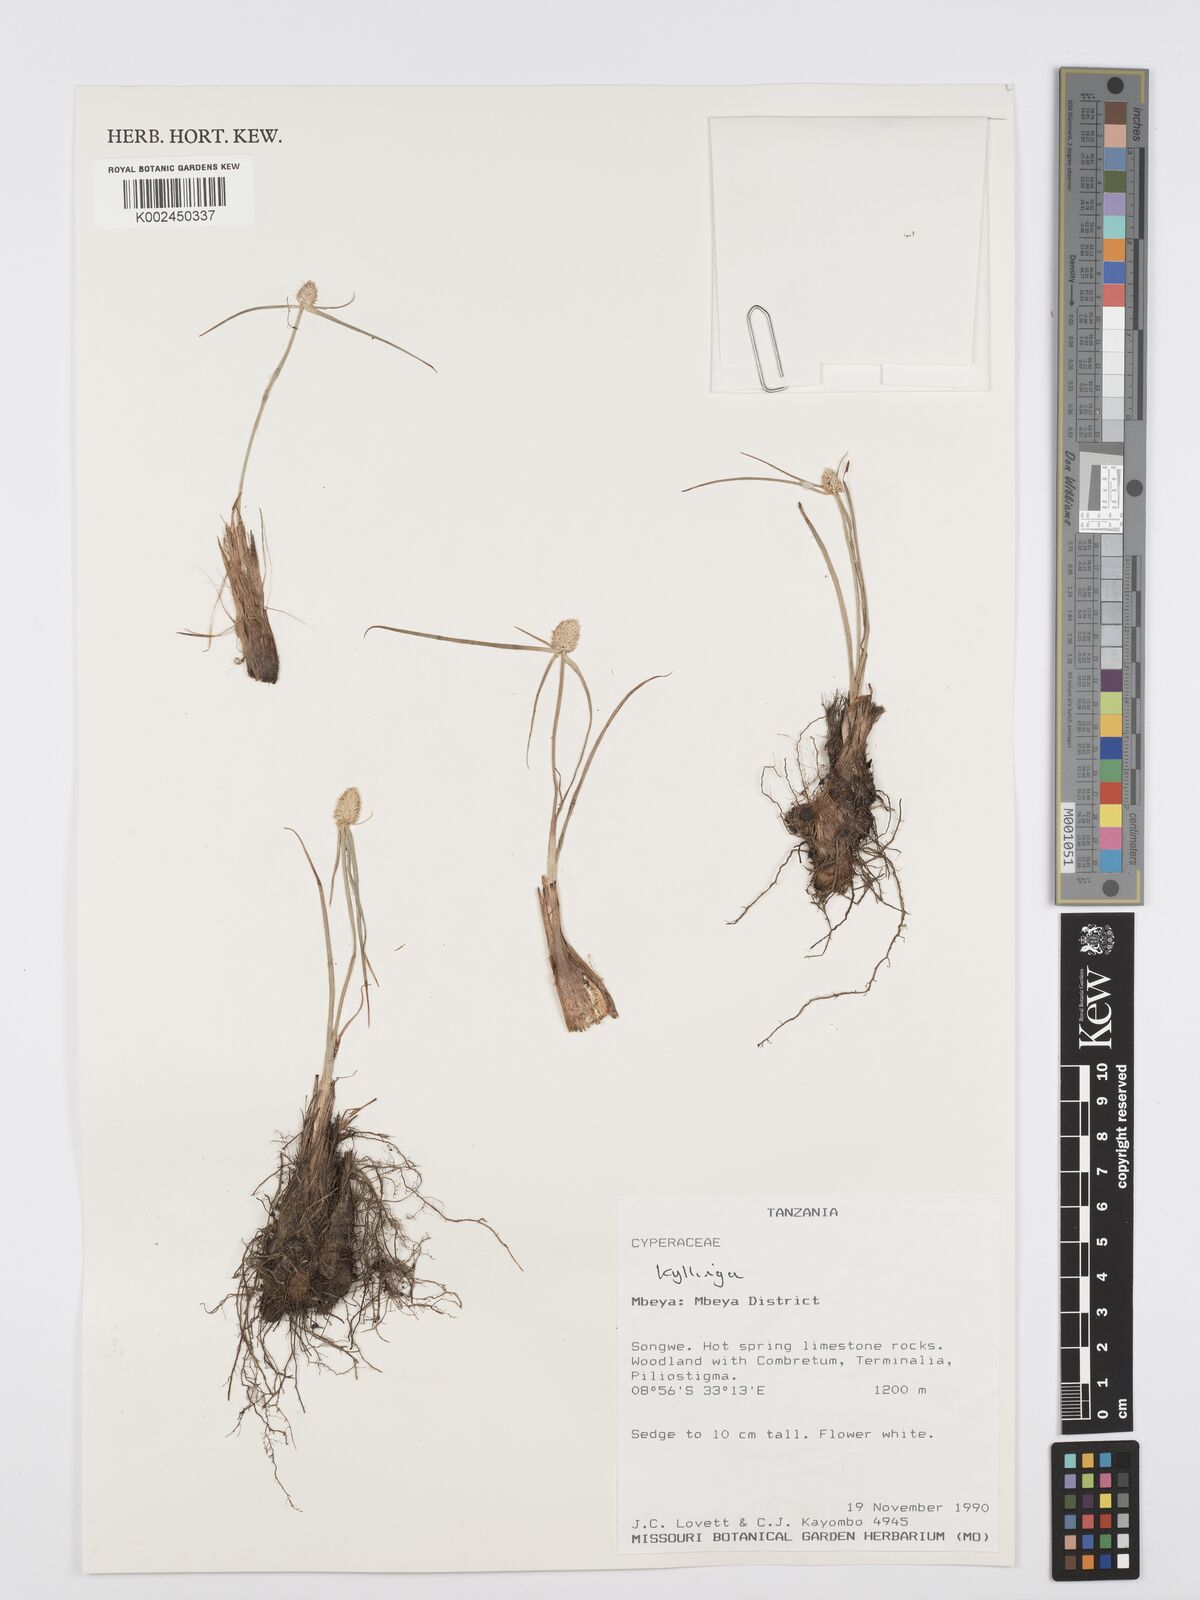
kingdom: Plantae
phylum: Tracheophyta
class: Liliopsida
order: Poales
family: Cyperaceae
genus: Cyperus
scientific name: Cyperus
